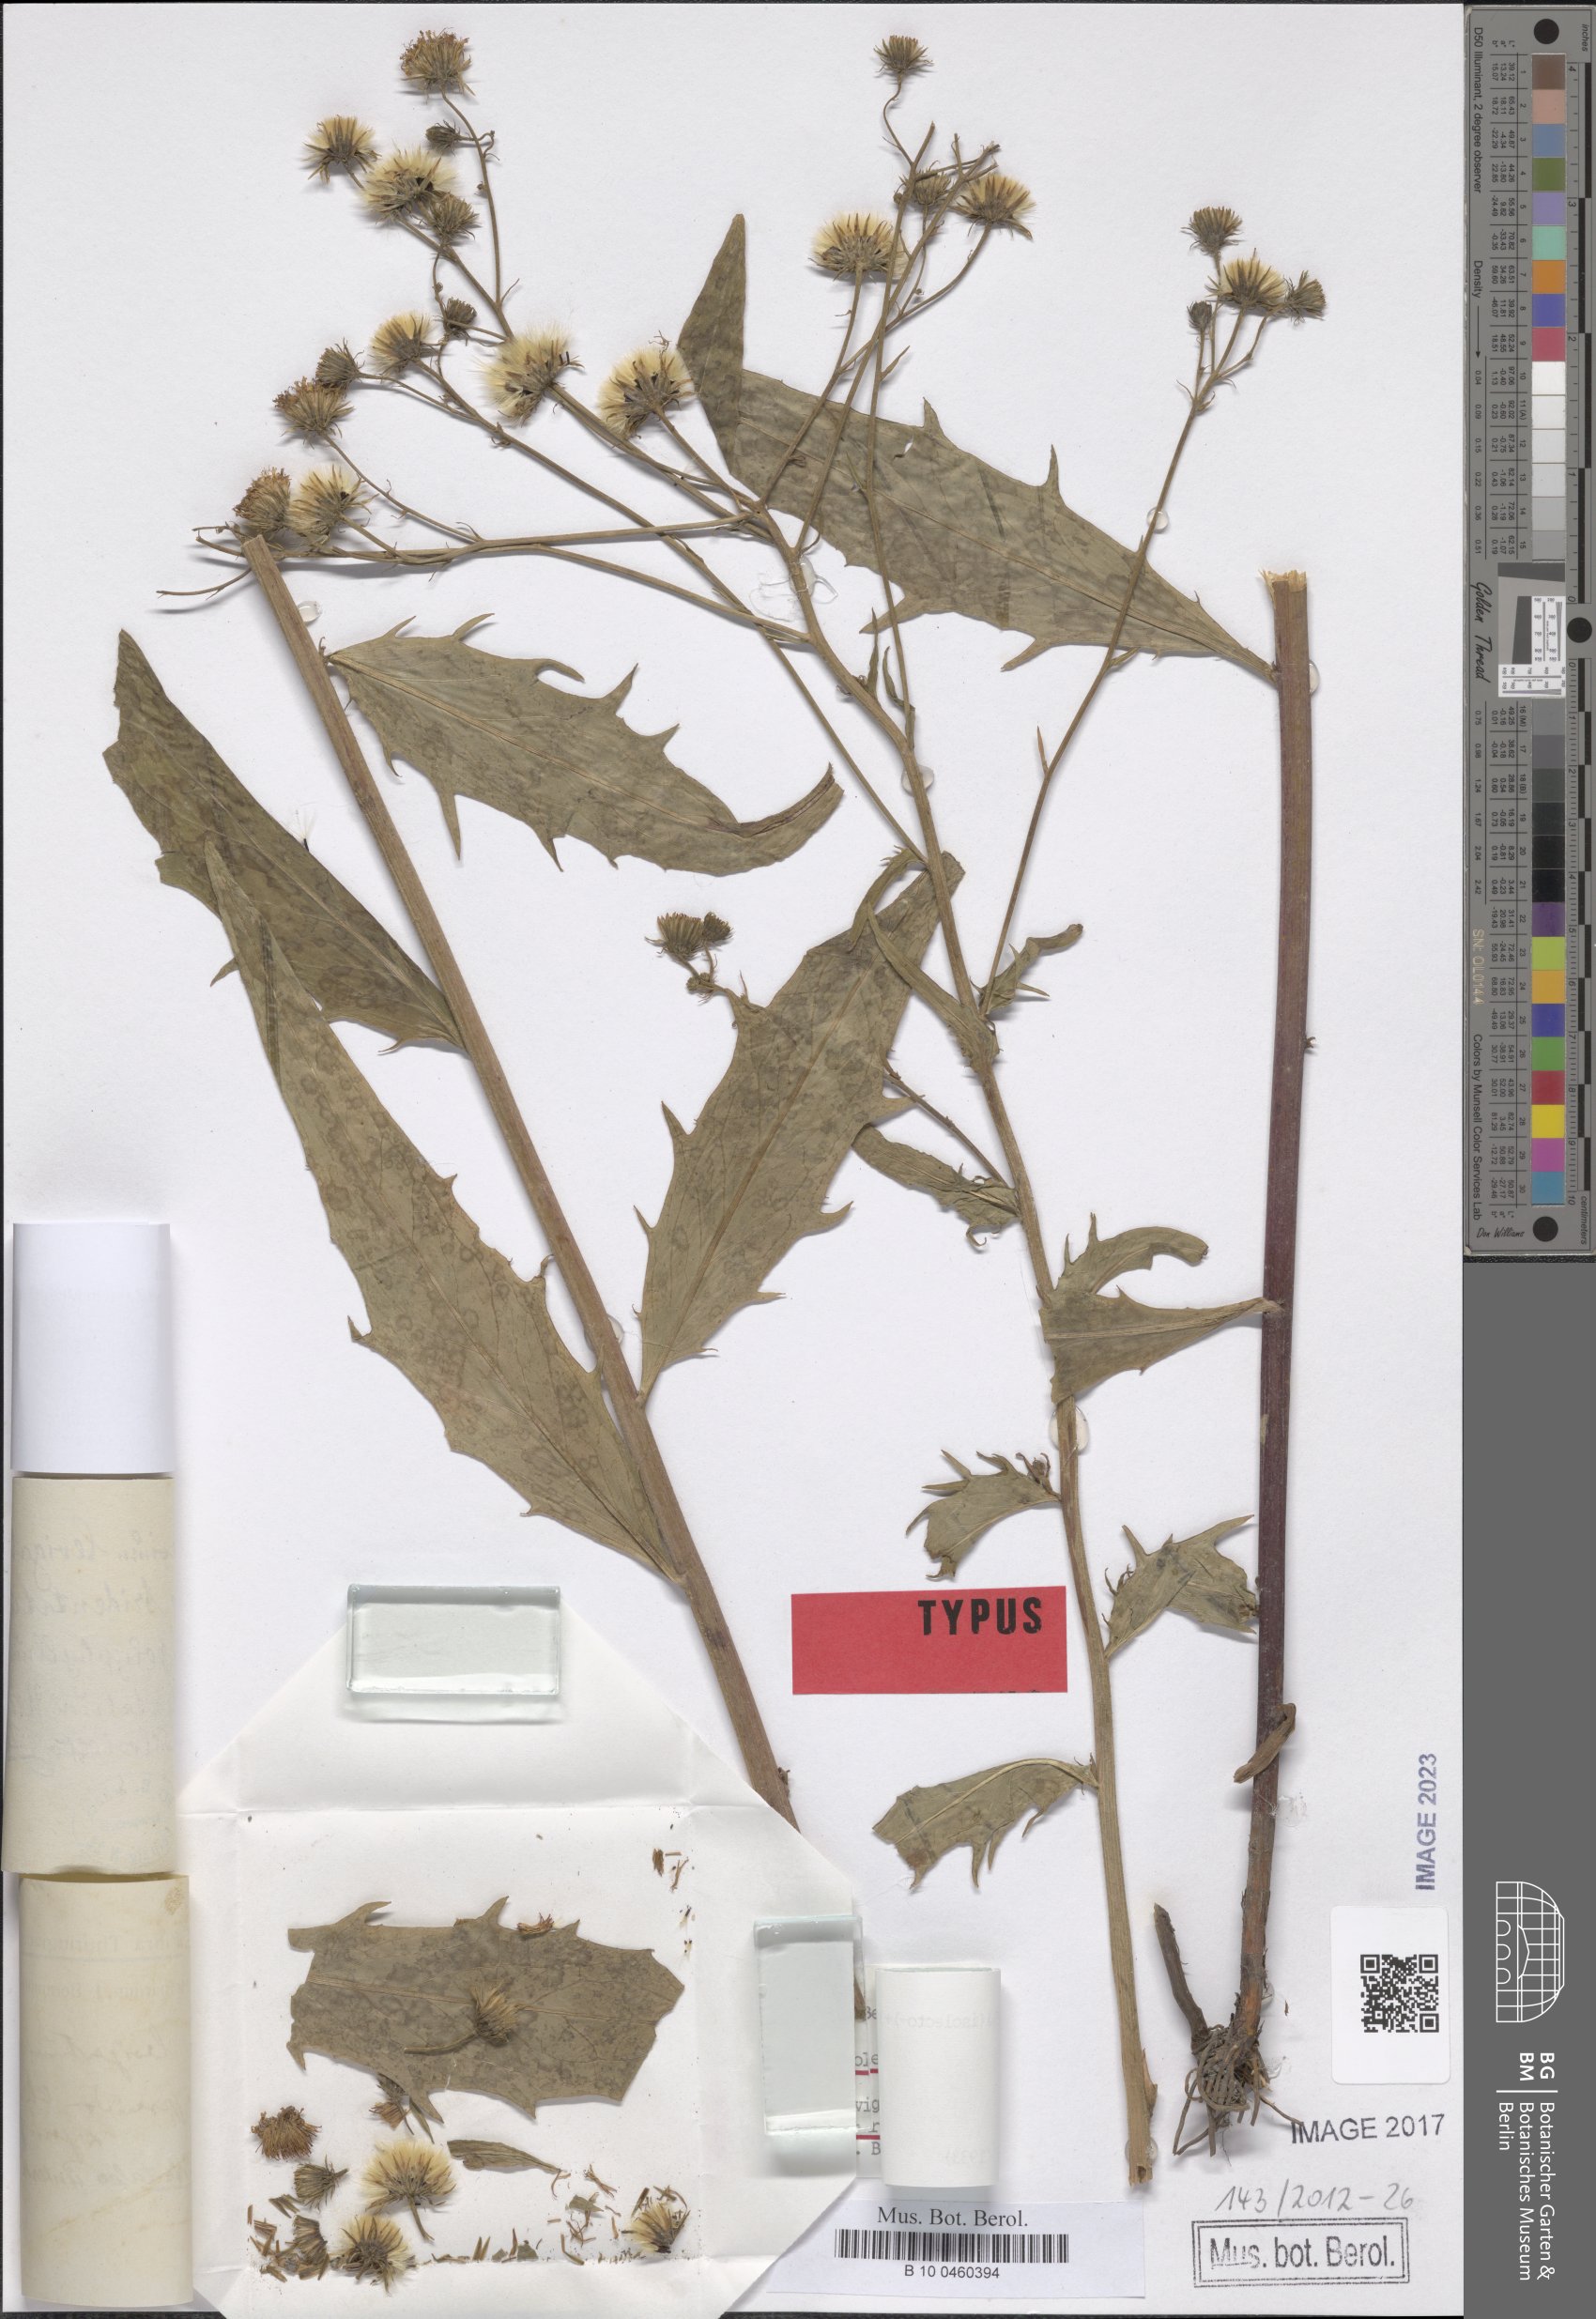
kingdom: Plantae
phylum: Tracheophyta
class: Magnoliopsida
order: Asterales
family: Asteraceae
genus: Hieracium
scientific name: Hieracium laevigatum
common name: Smooth hawkweed
